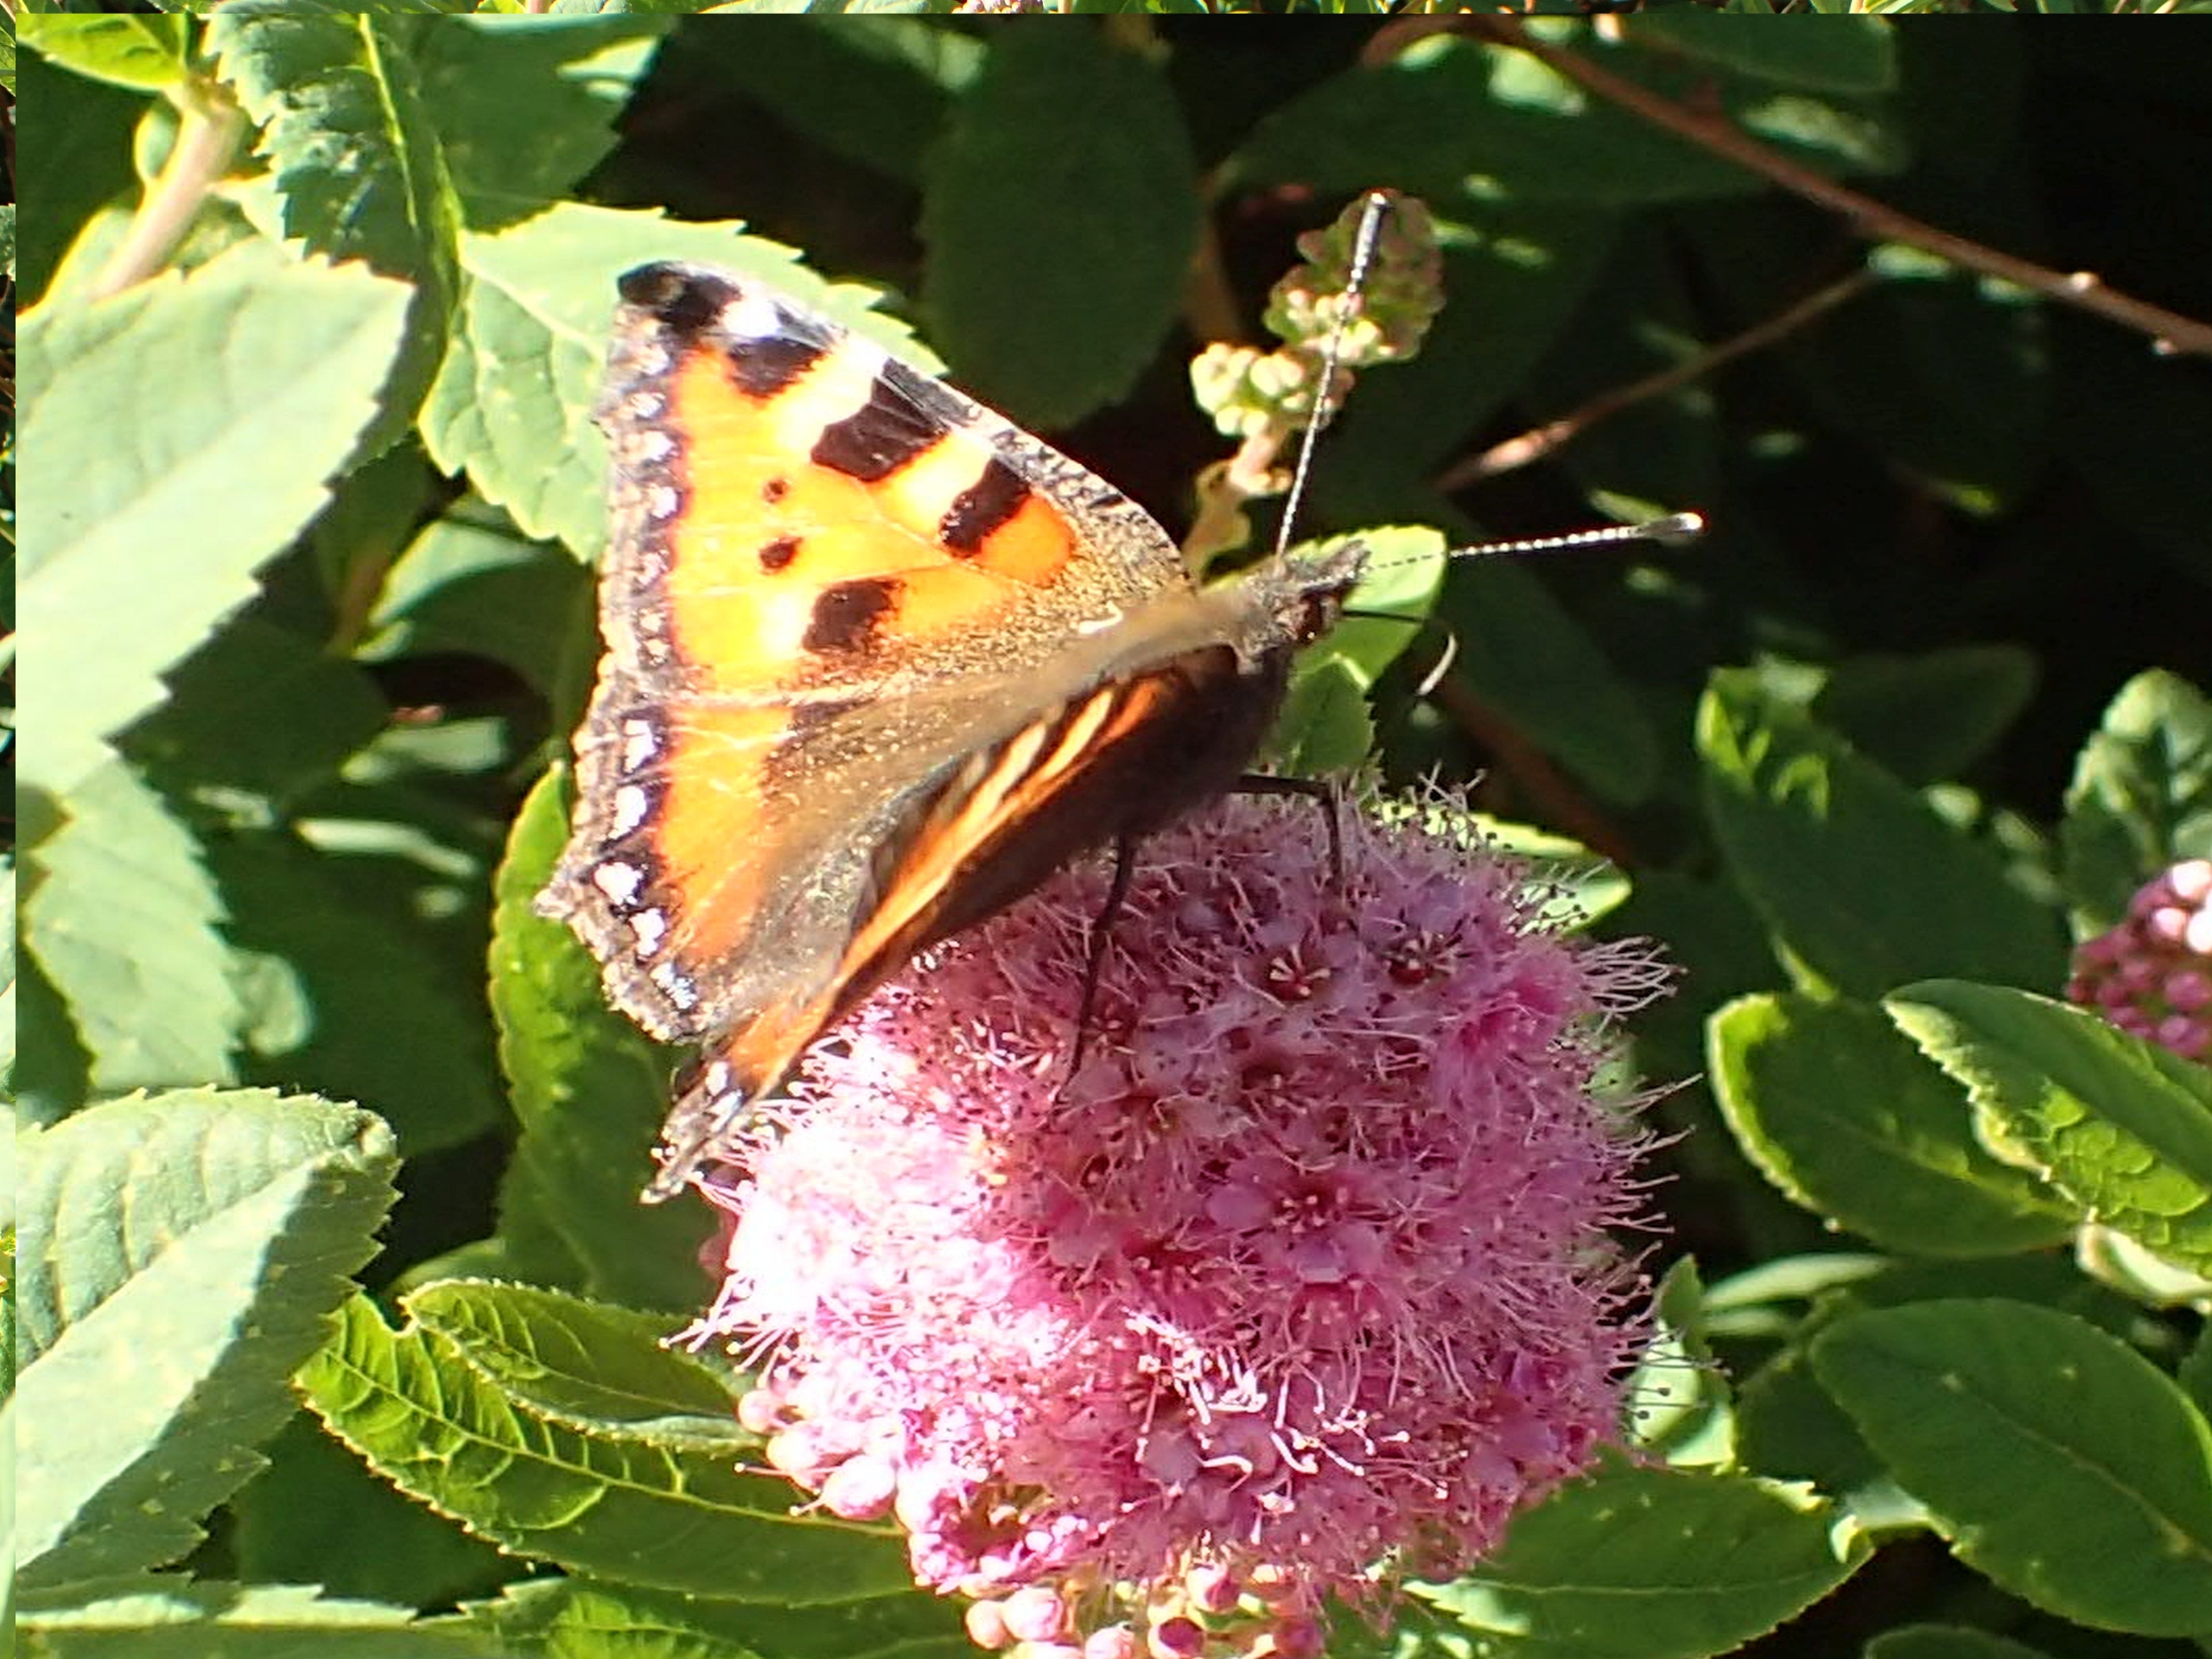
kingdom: Animalia
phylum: Arthropoda
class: Insecta
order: Lepidoptera
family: Nymphalidae
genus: Aglais
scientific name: Aglais urticae
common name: Nældens takvinge
